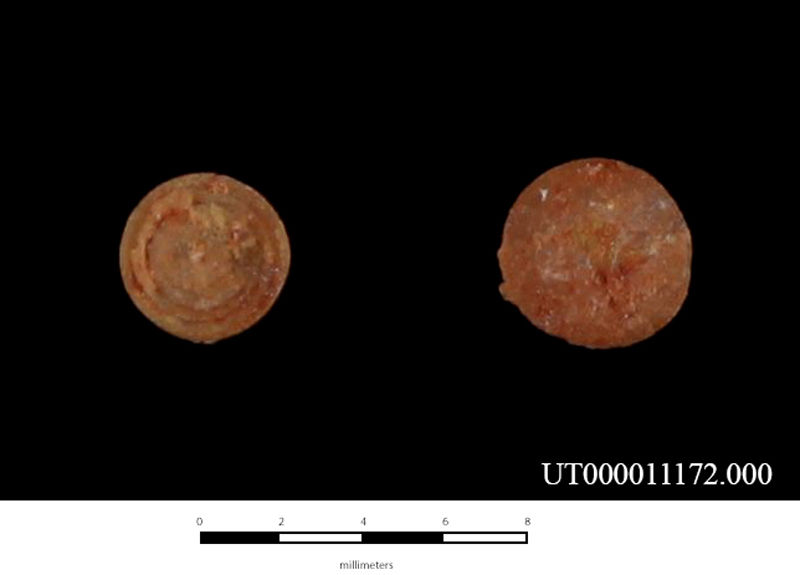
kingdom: Animalia
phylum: Mollusca
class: Gastropoda
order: Cycloneritida
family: Neritidae
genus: Nerita
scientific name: Nerita
